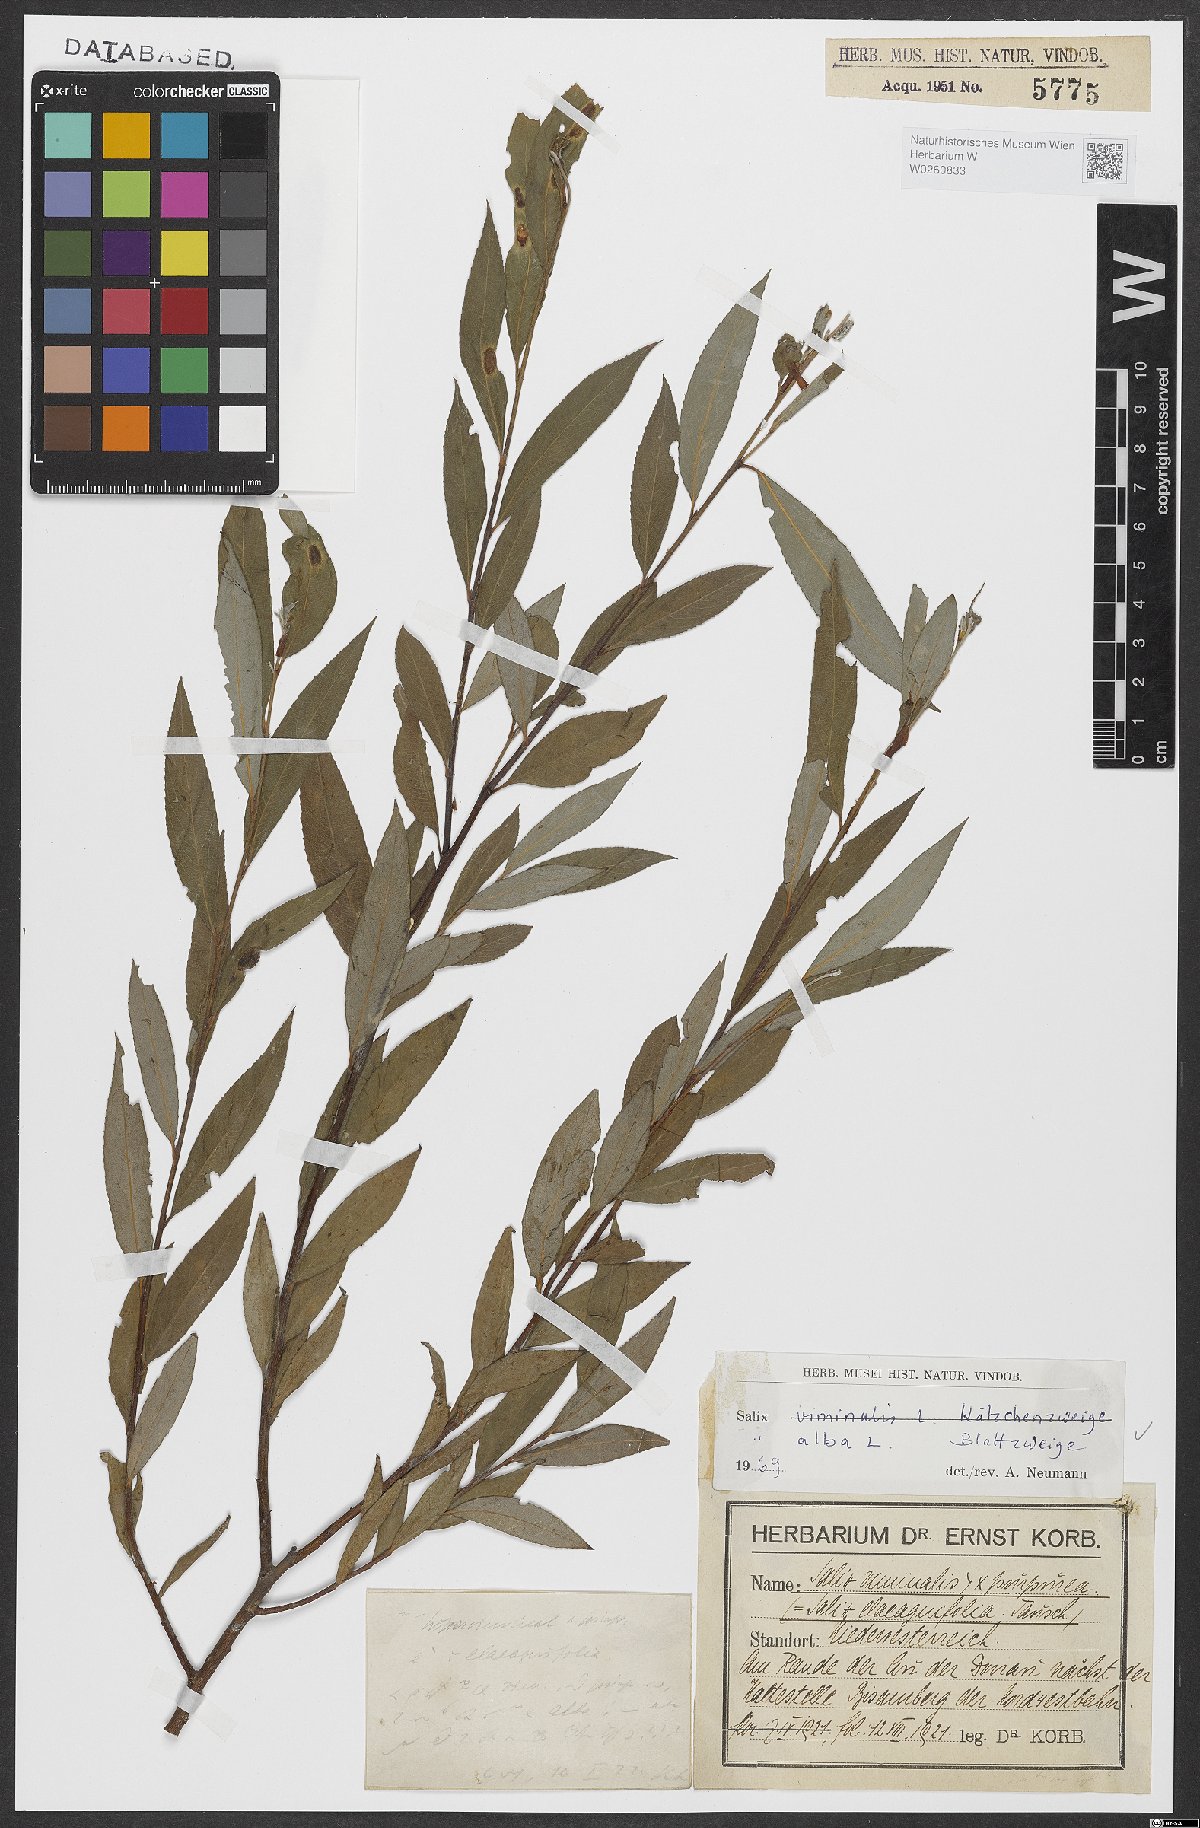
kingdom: Plantae
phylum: Tracheophyta
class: Magnoliopsida
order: Malpighiales
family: Salicaceae
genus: Salix
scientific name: Salix alba
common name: White willow
